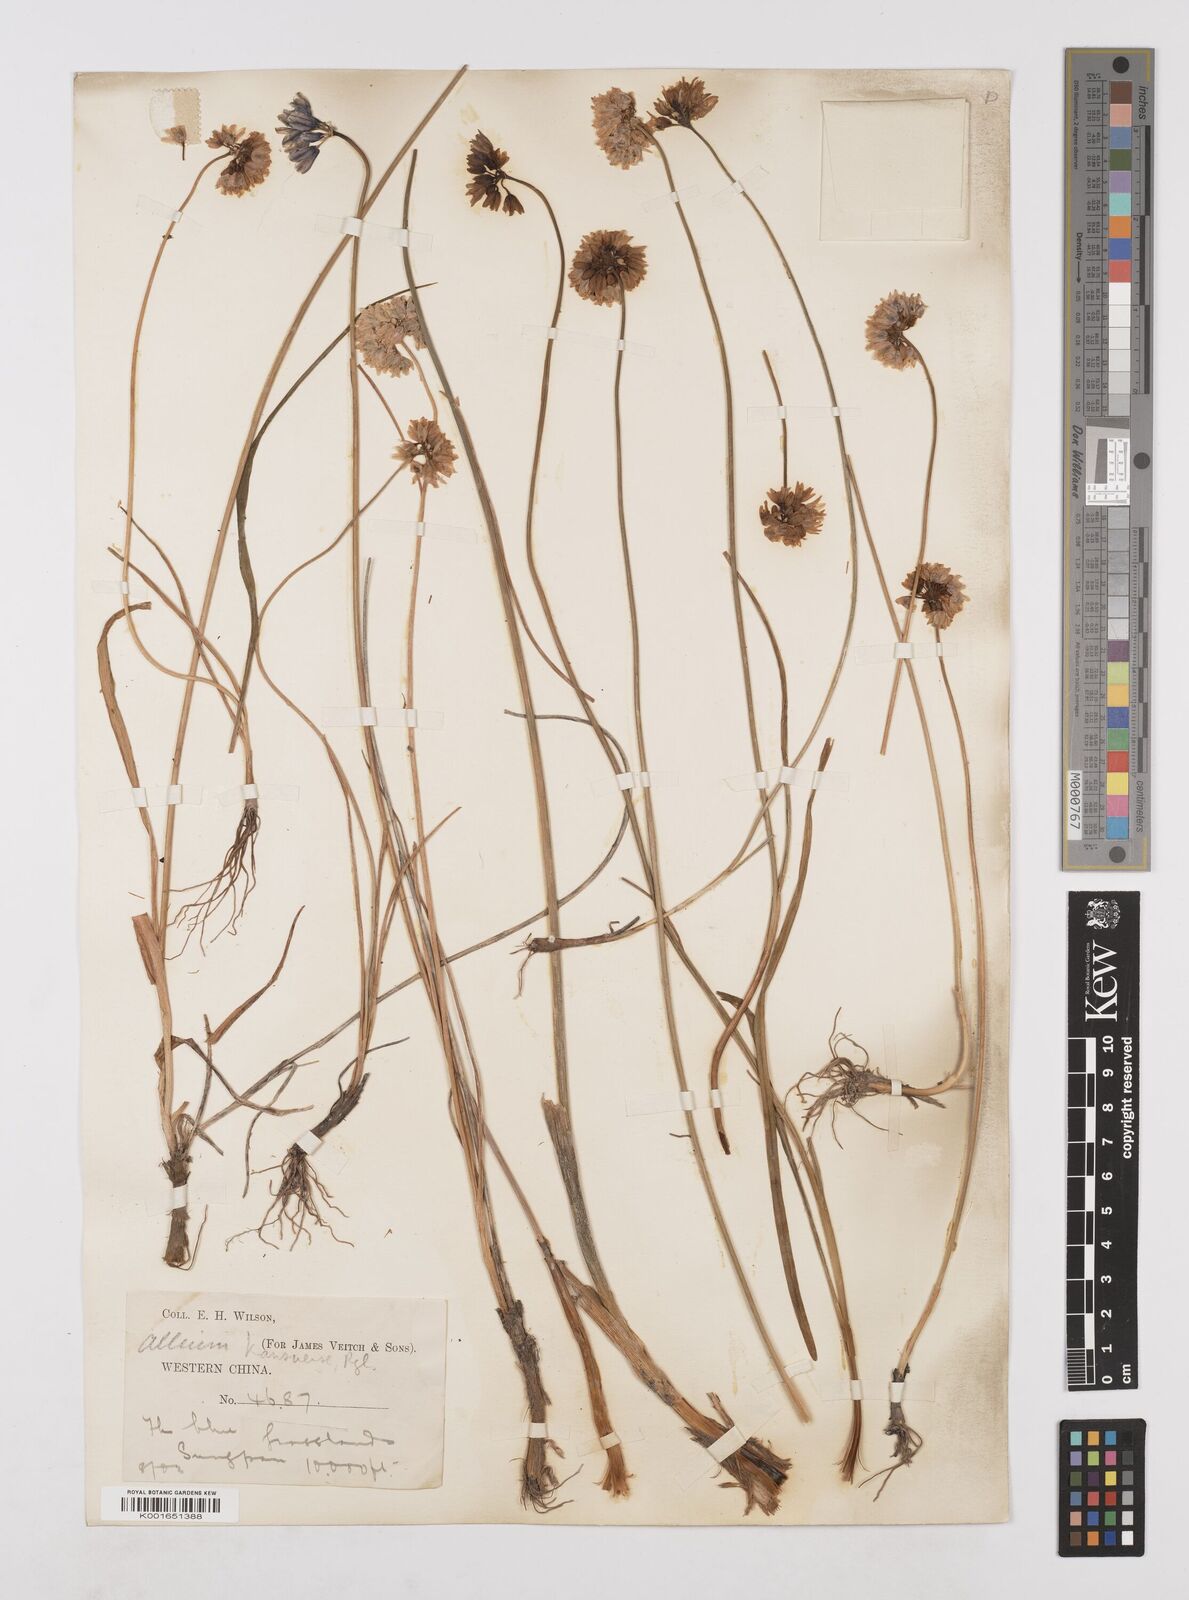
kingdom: Plantae
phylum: Tracheophyta
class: Liliopsida
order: Asparagales
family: Amaryllidaceae
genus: Allium
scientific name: Allium sikkimense
